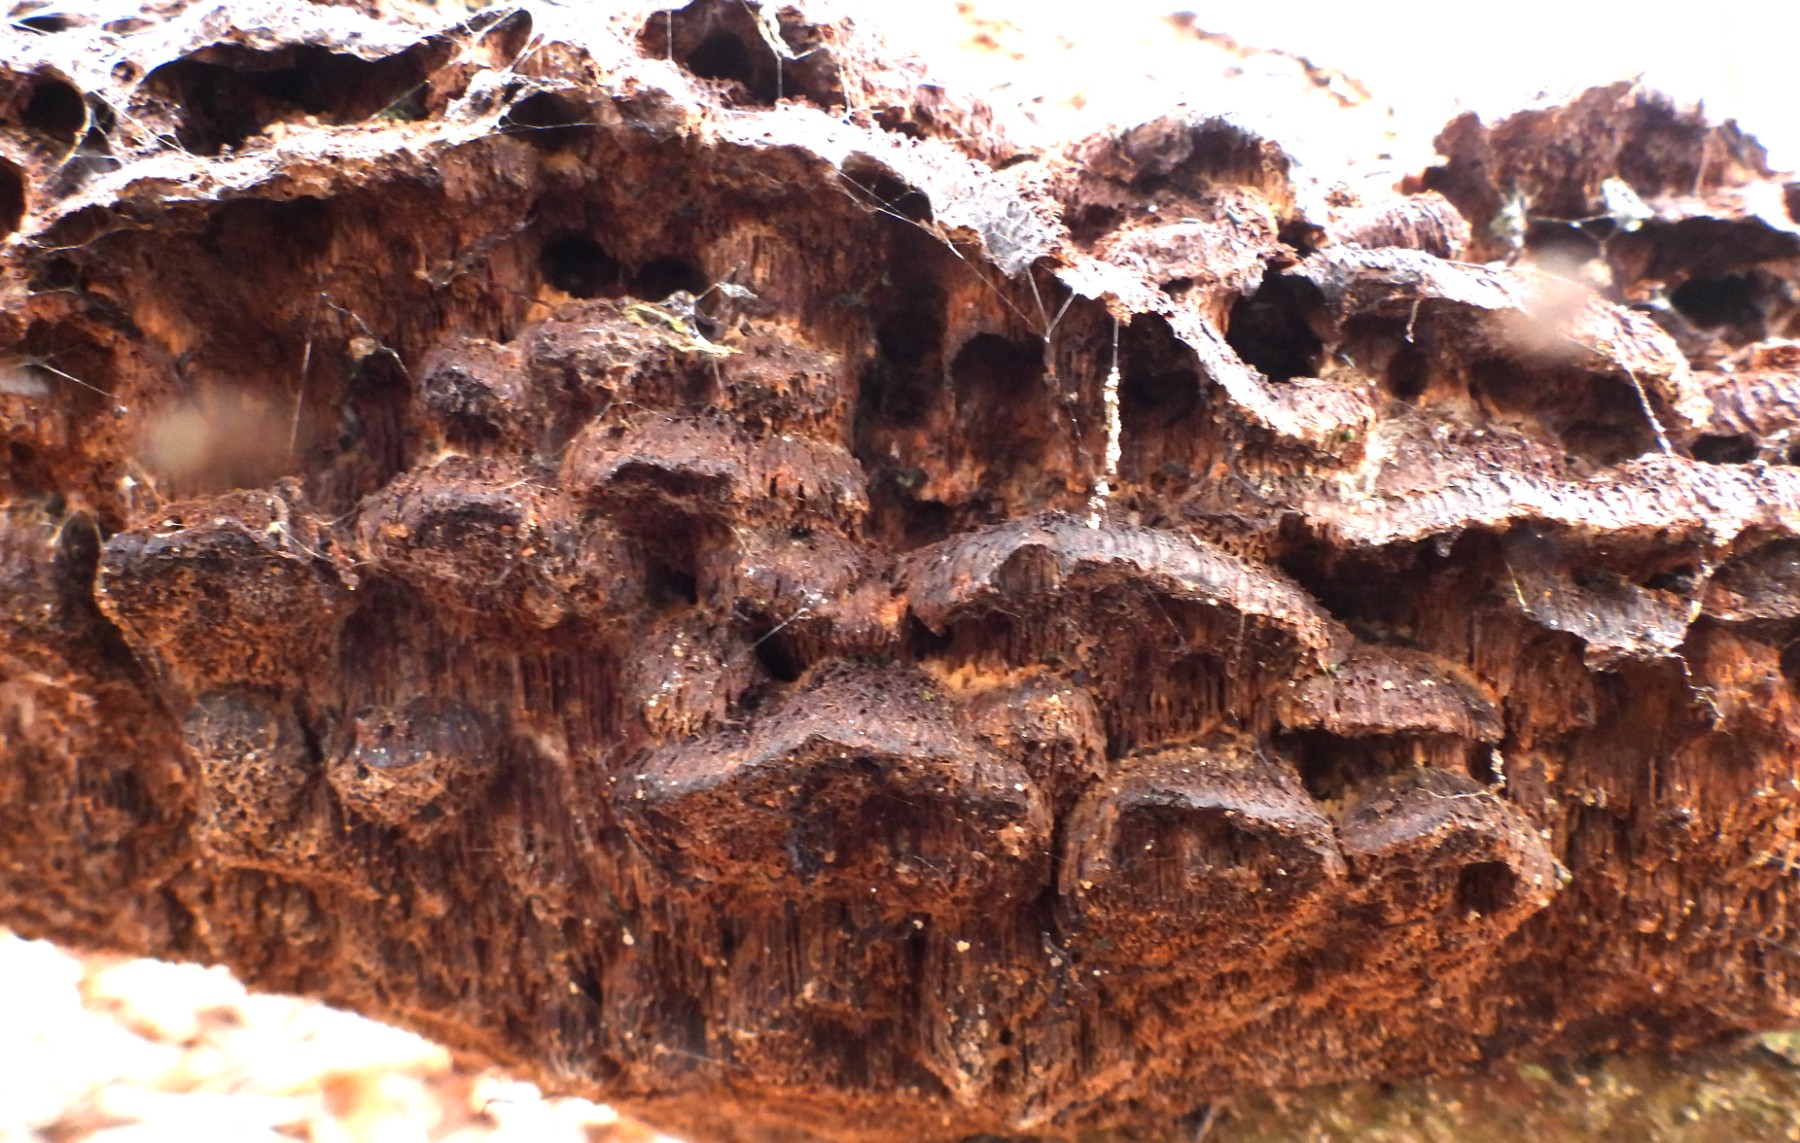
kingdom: Fungi
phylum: Basidiomycota
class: Agaricomycetes
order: Hymenochaetales
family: Hymenochaetaceae
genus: Mensularia
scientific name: Mensularia nodulosa
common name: bøge-spejlporesvamp
